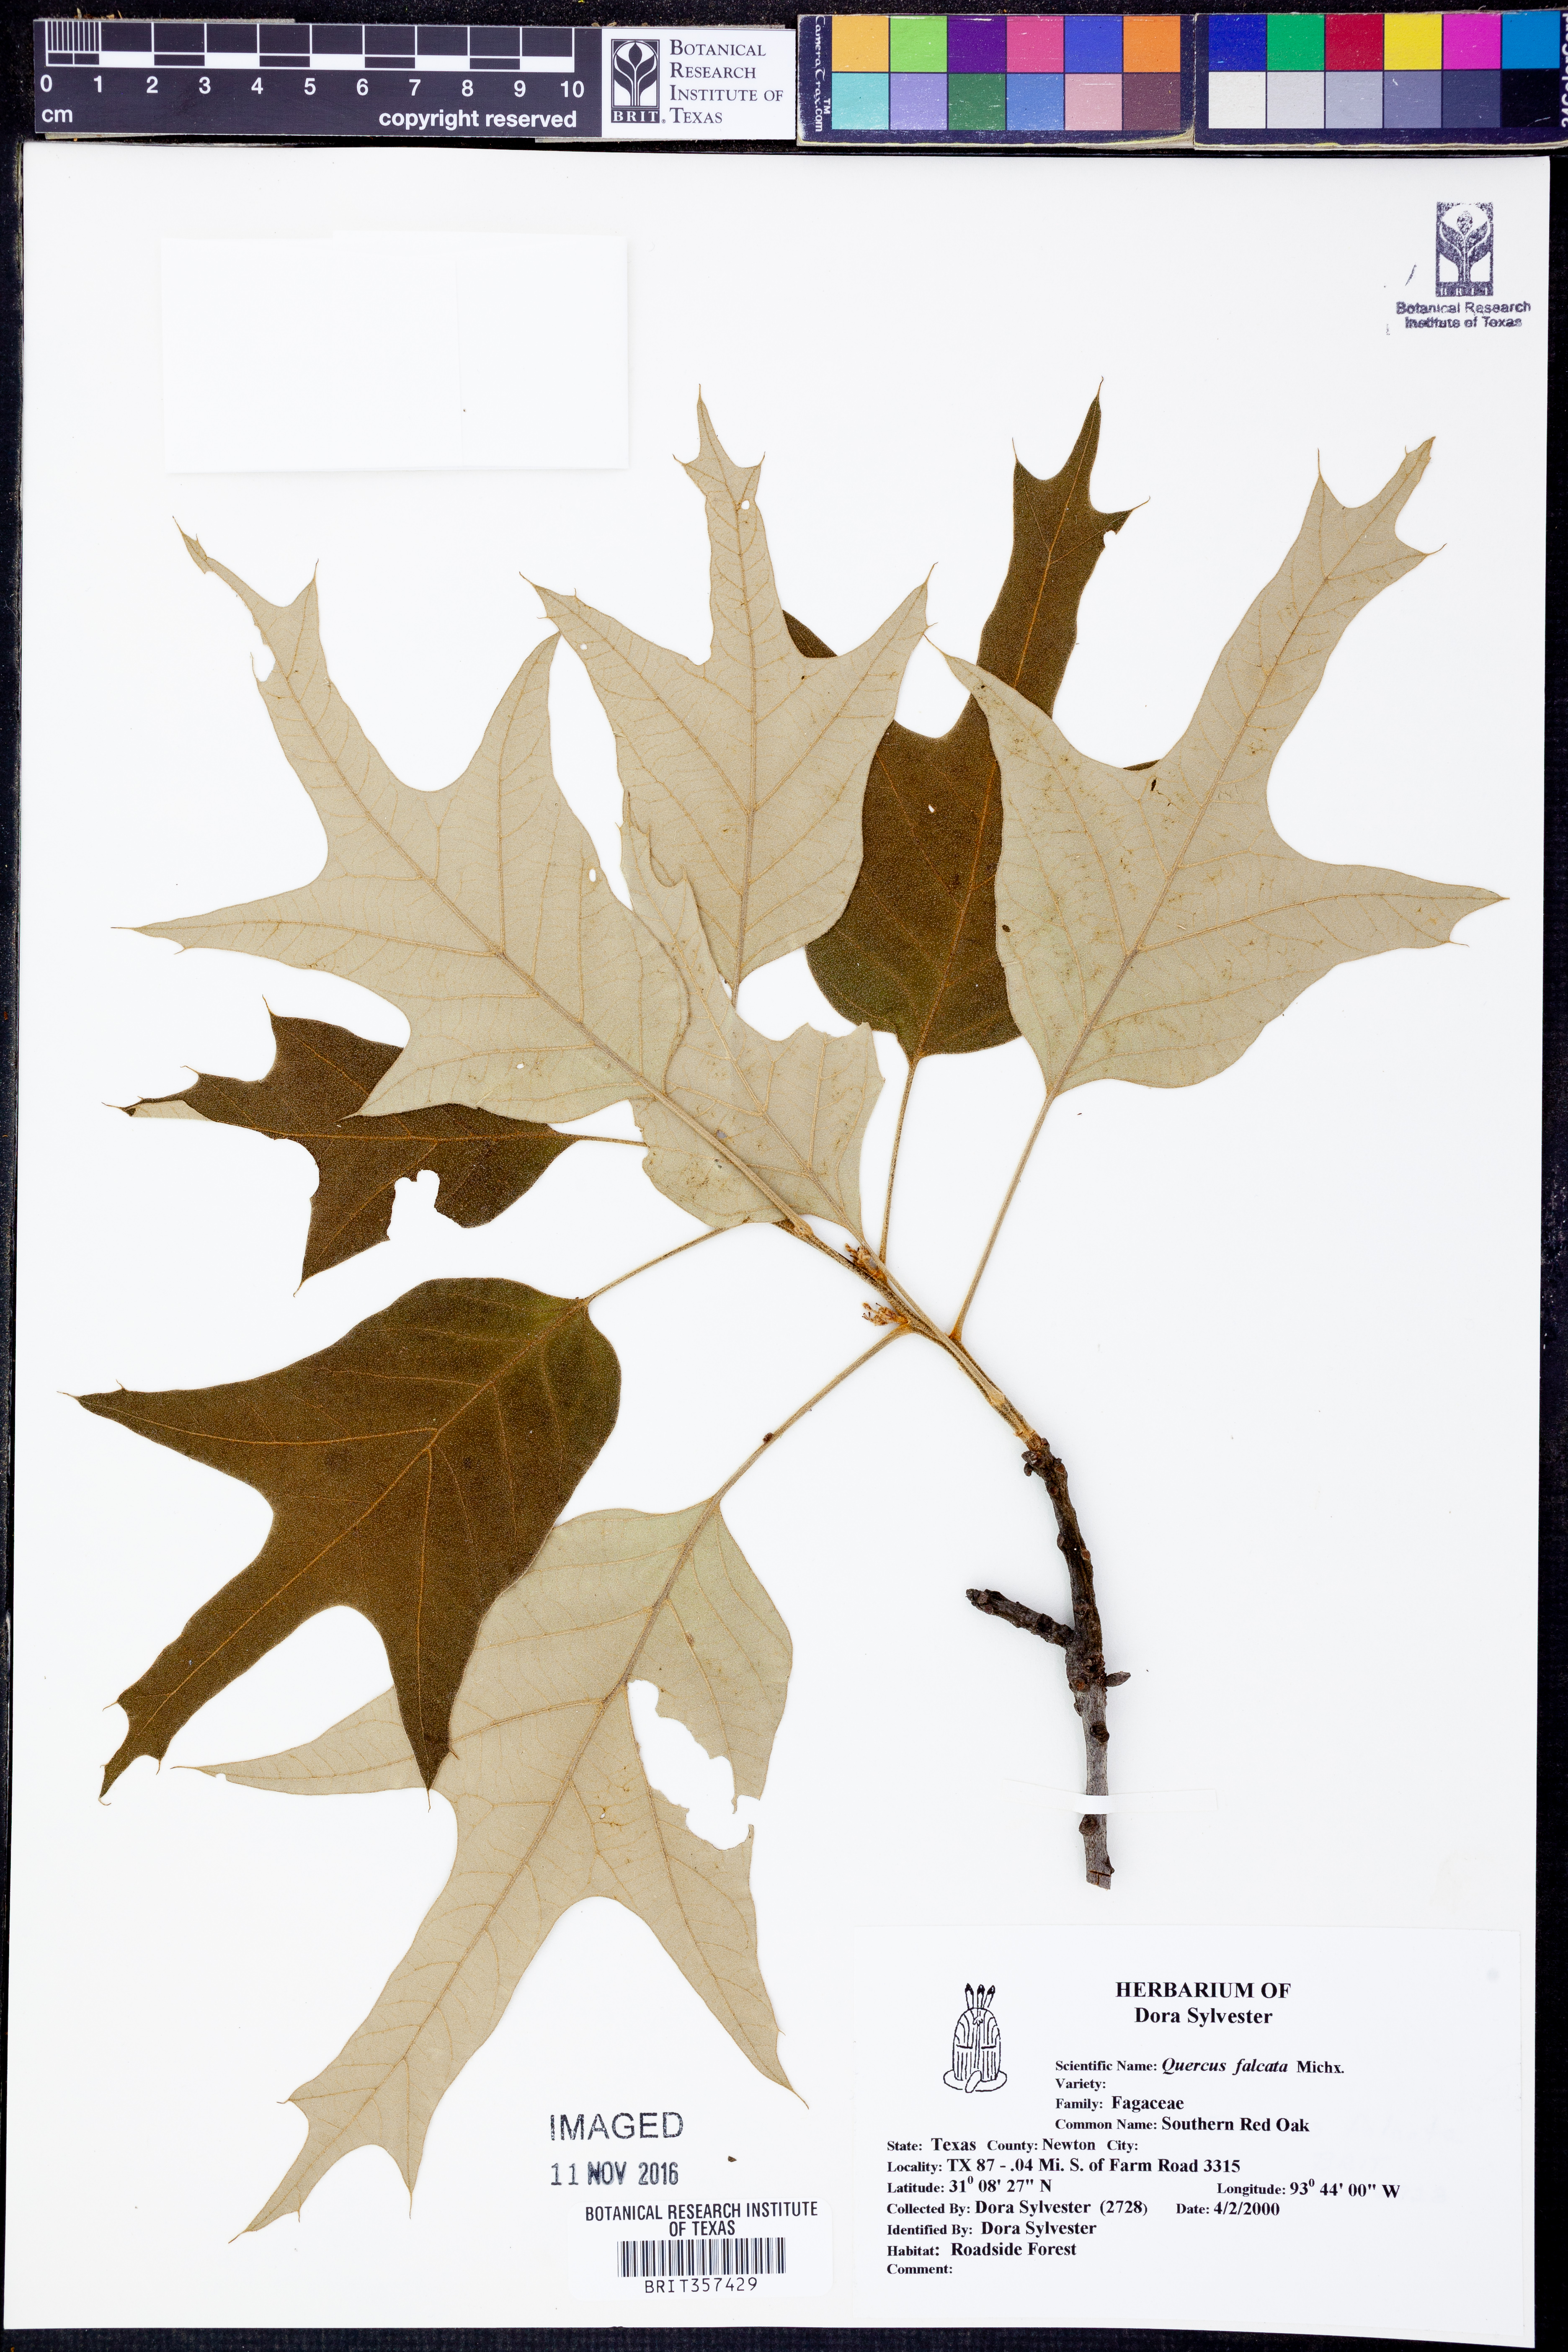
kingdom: Plantae
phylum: Tracheophyta
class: Magnoliopsida
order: Fagales
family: Fagaceae
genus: Quercus
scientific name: Quercus falcata
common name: Southern red oak
